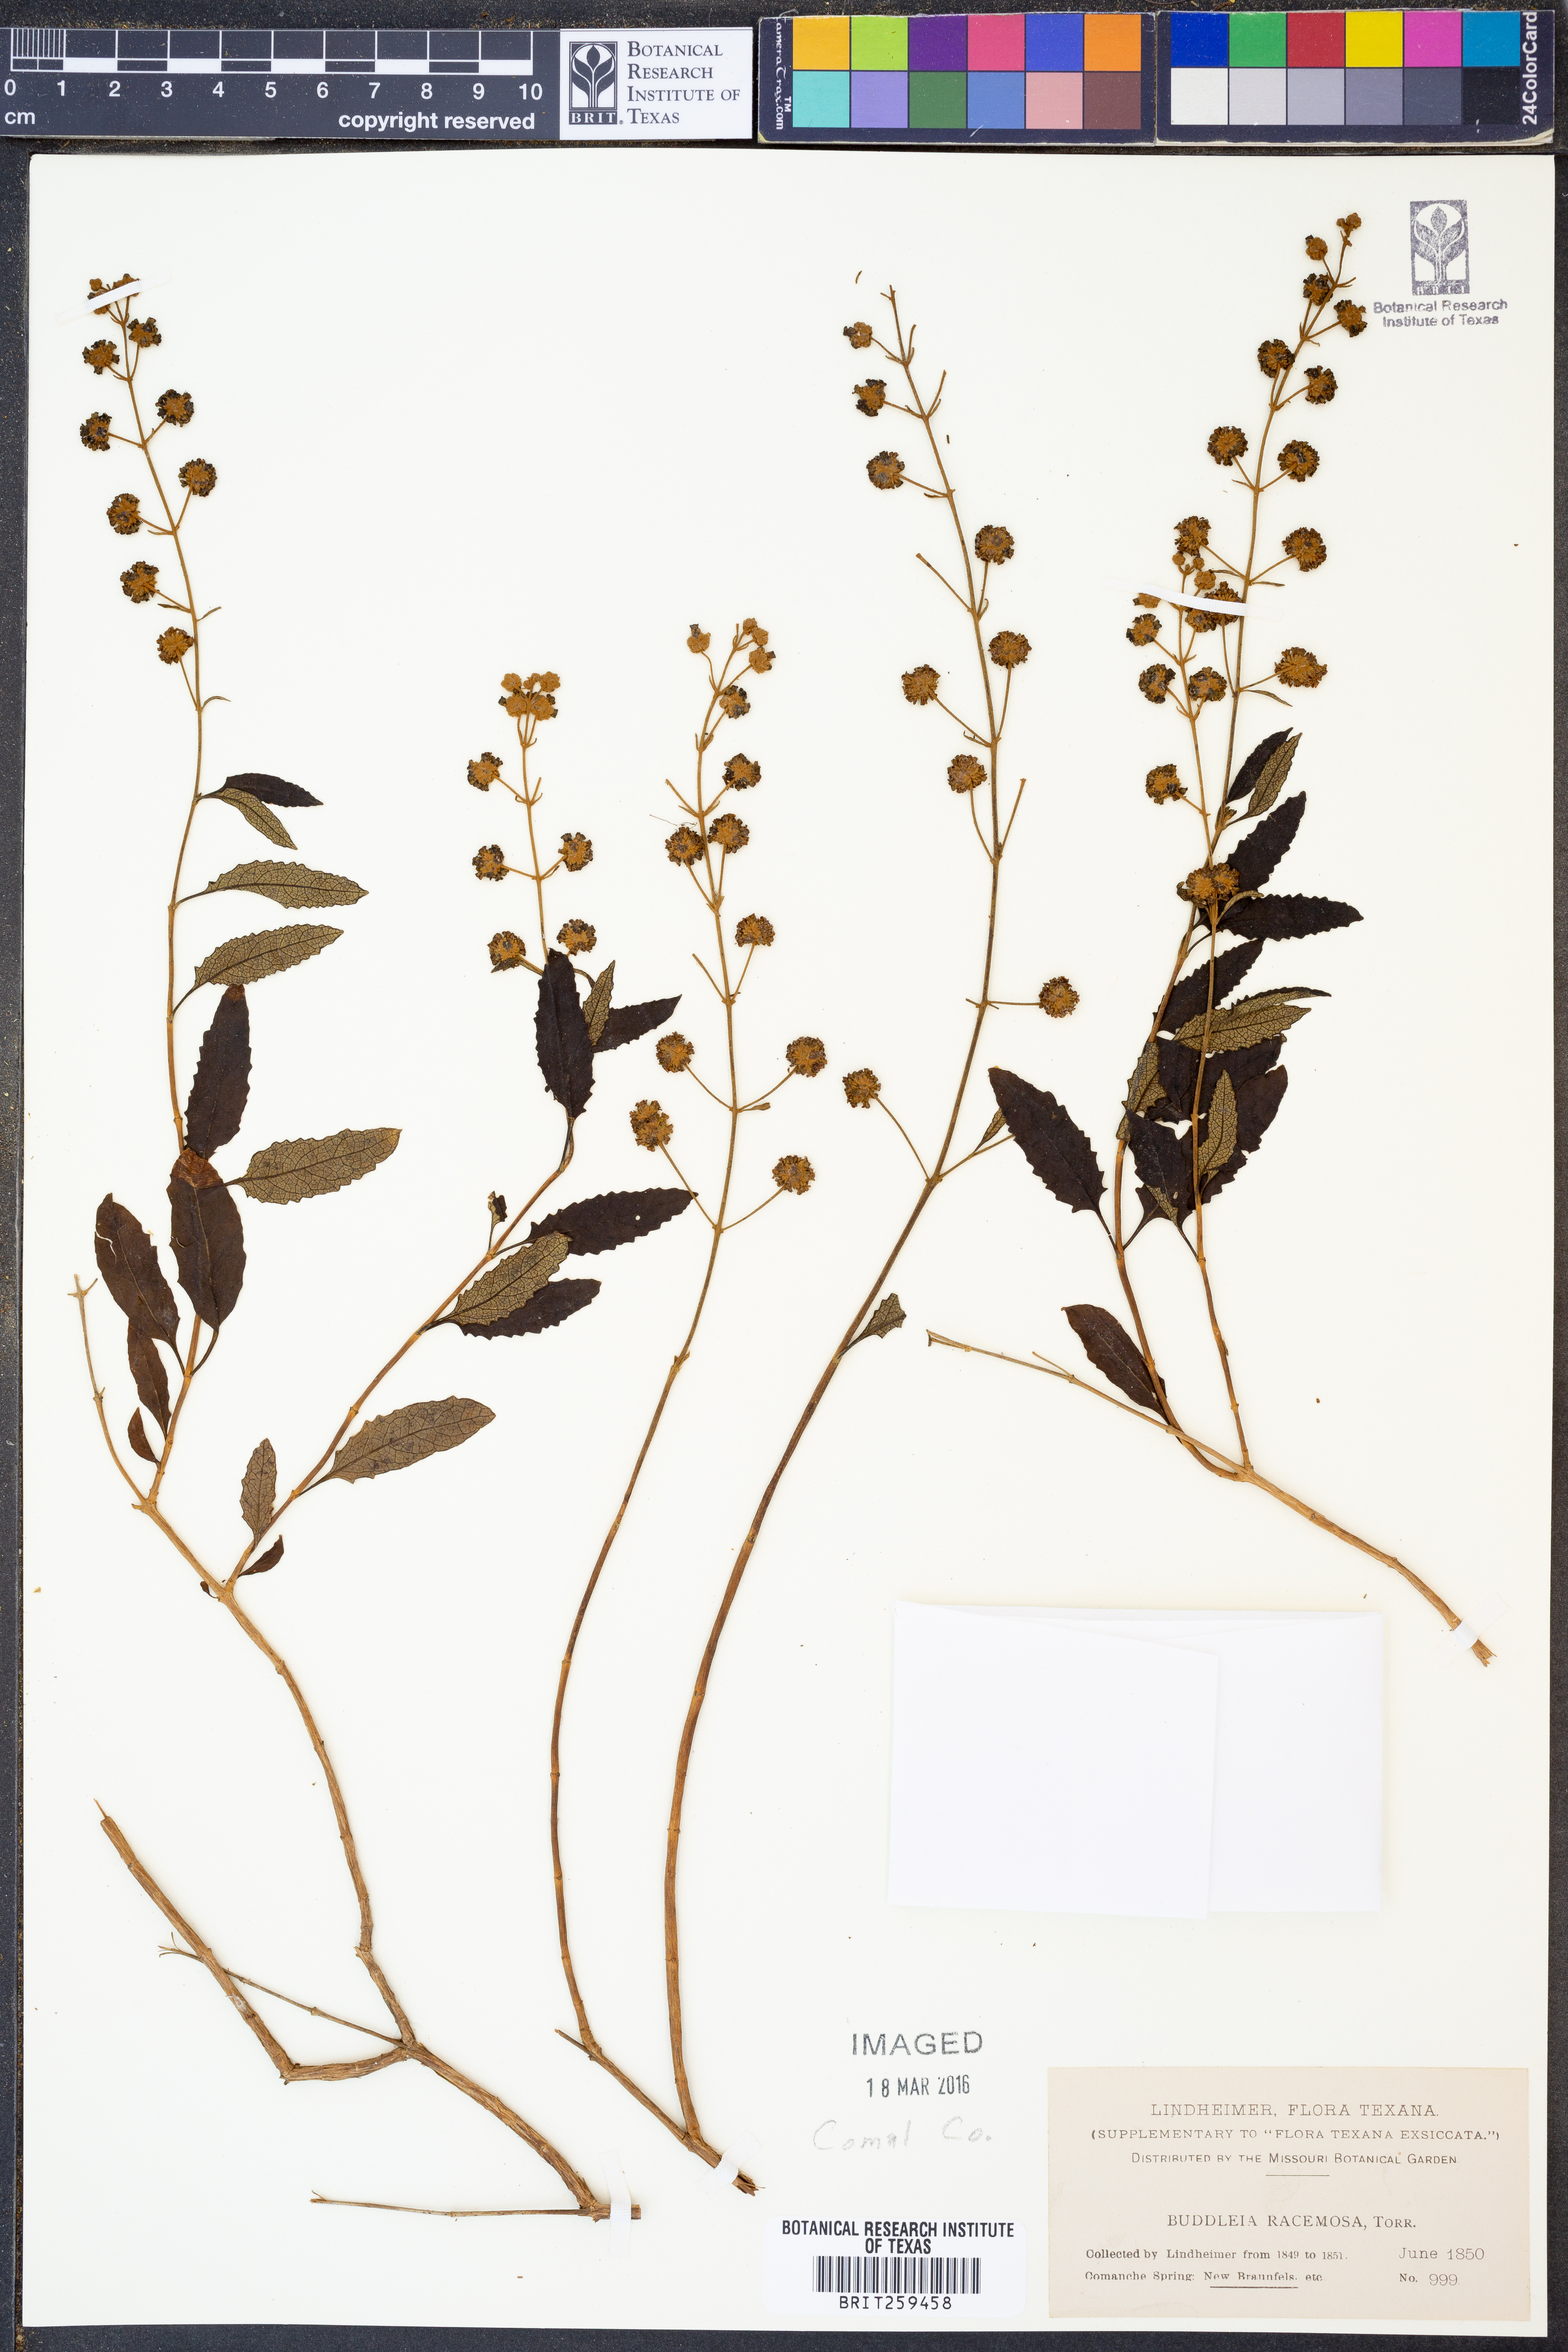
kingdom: Plantae
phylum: Tracheophyta
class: Magnoliopsida
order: Lamiales
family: Scrophulariaceae
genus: Buddleja
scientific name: Buddleja racemosa
